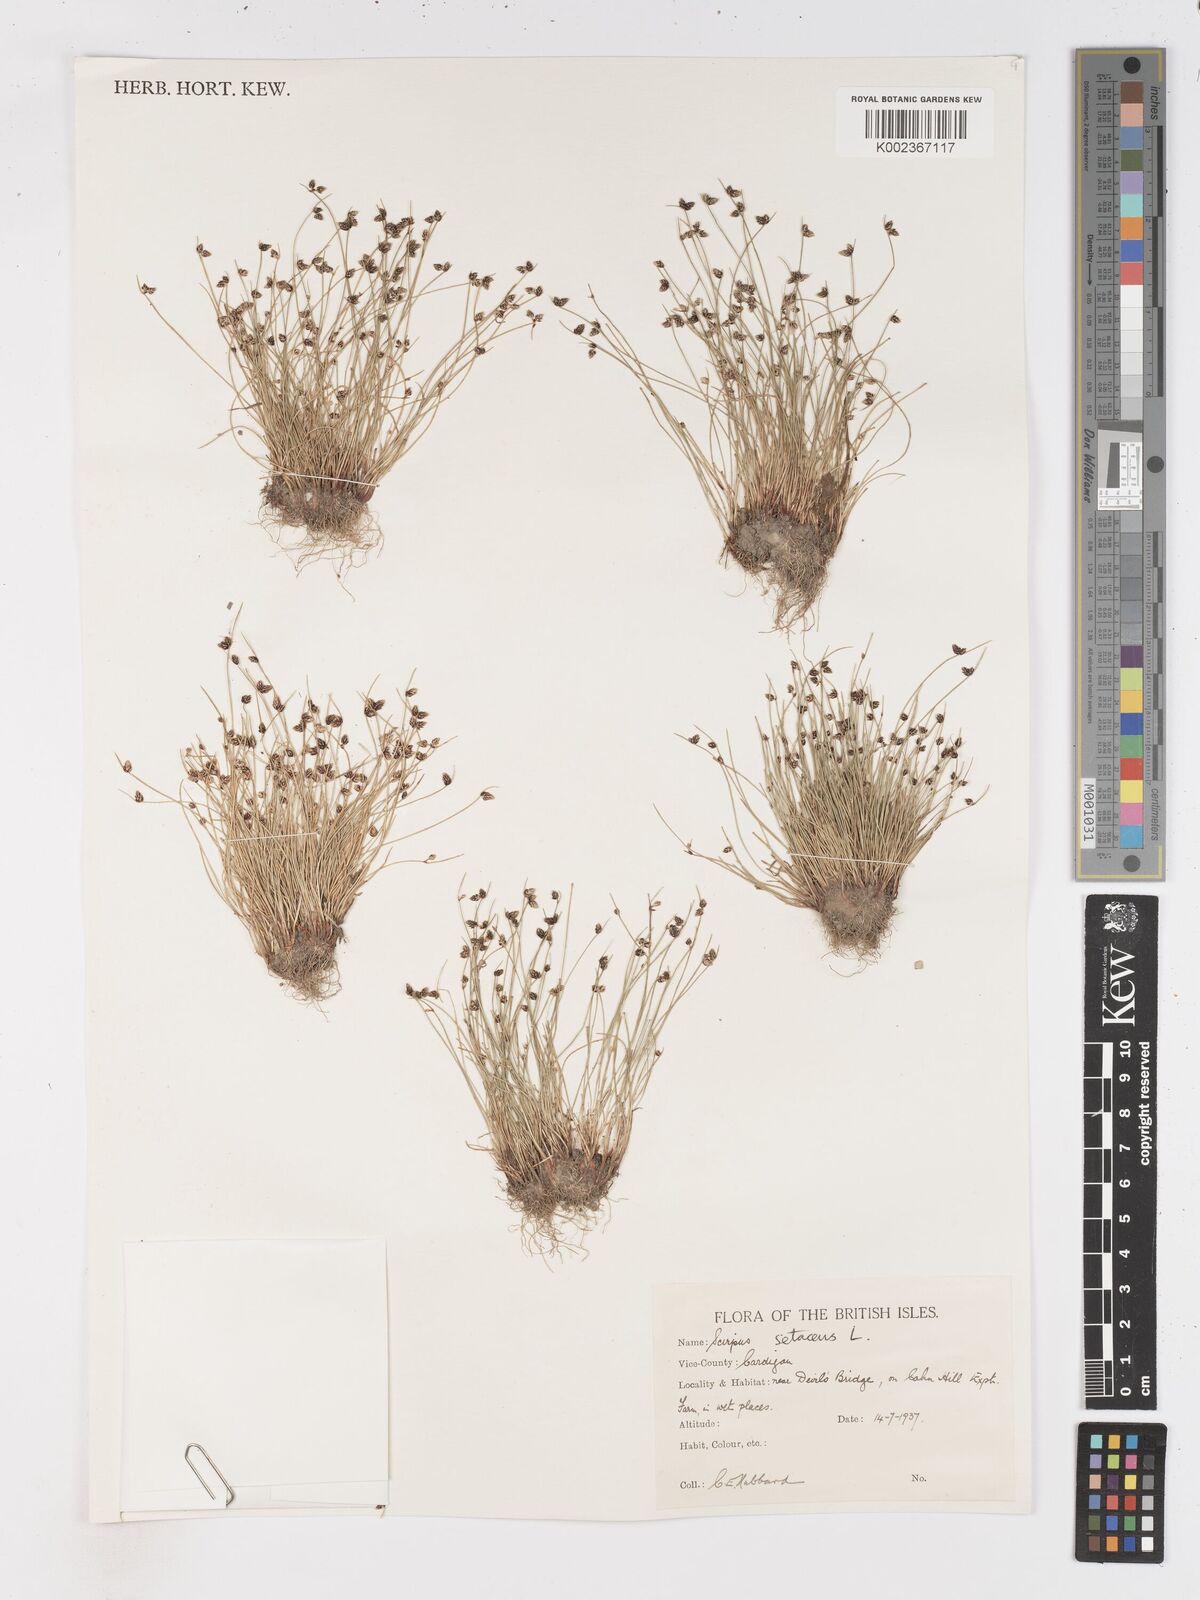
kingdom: Plantae
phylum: Tracheophyta
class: Liliopsida
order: Poales
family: Cyperaceae
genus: Isolepis
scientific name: Isolepis setacea
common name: Bristle club-rush
